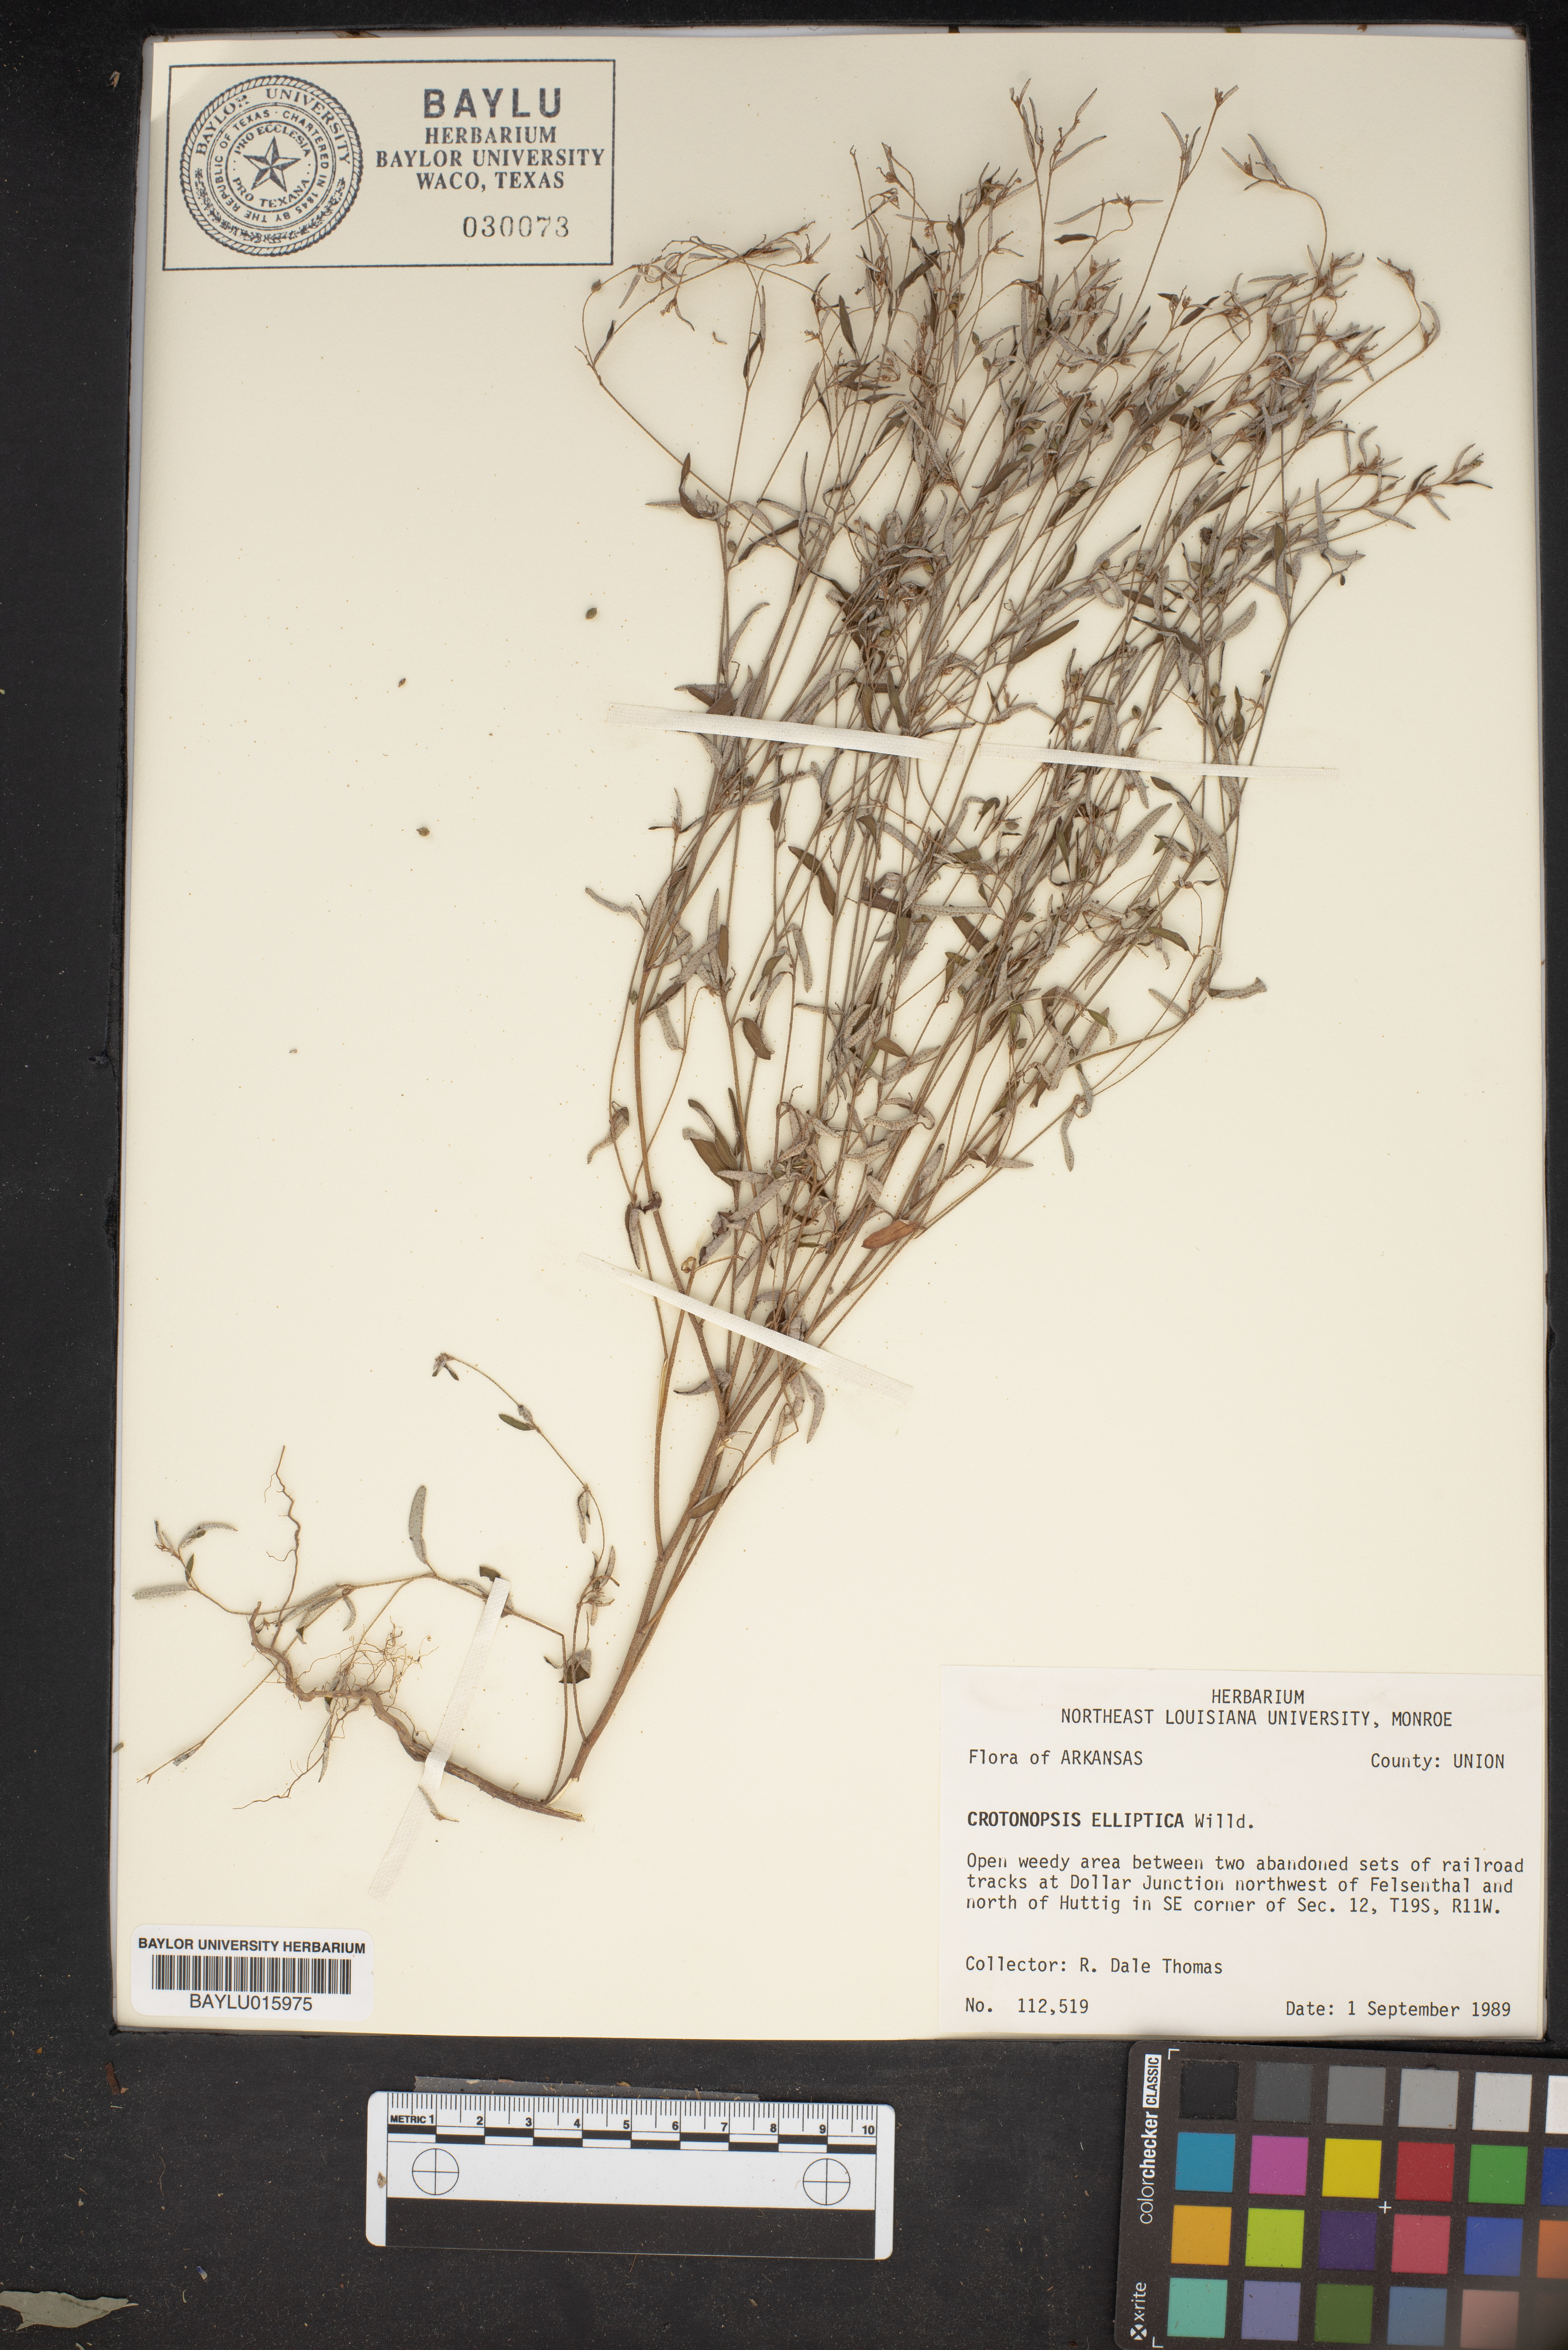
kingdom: Plantae
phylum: Tracheophyta
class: Magnoliopsida
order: Malpighiales
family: Euphorbiaceae
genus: Croton
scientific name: Croton michauxii
